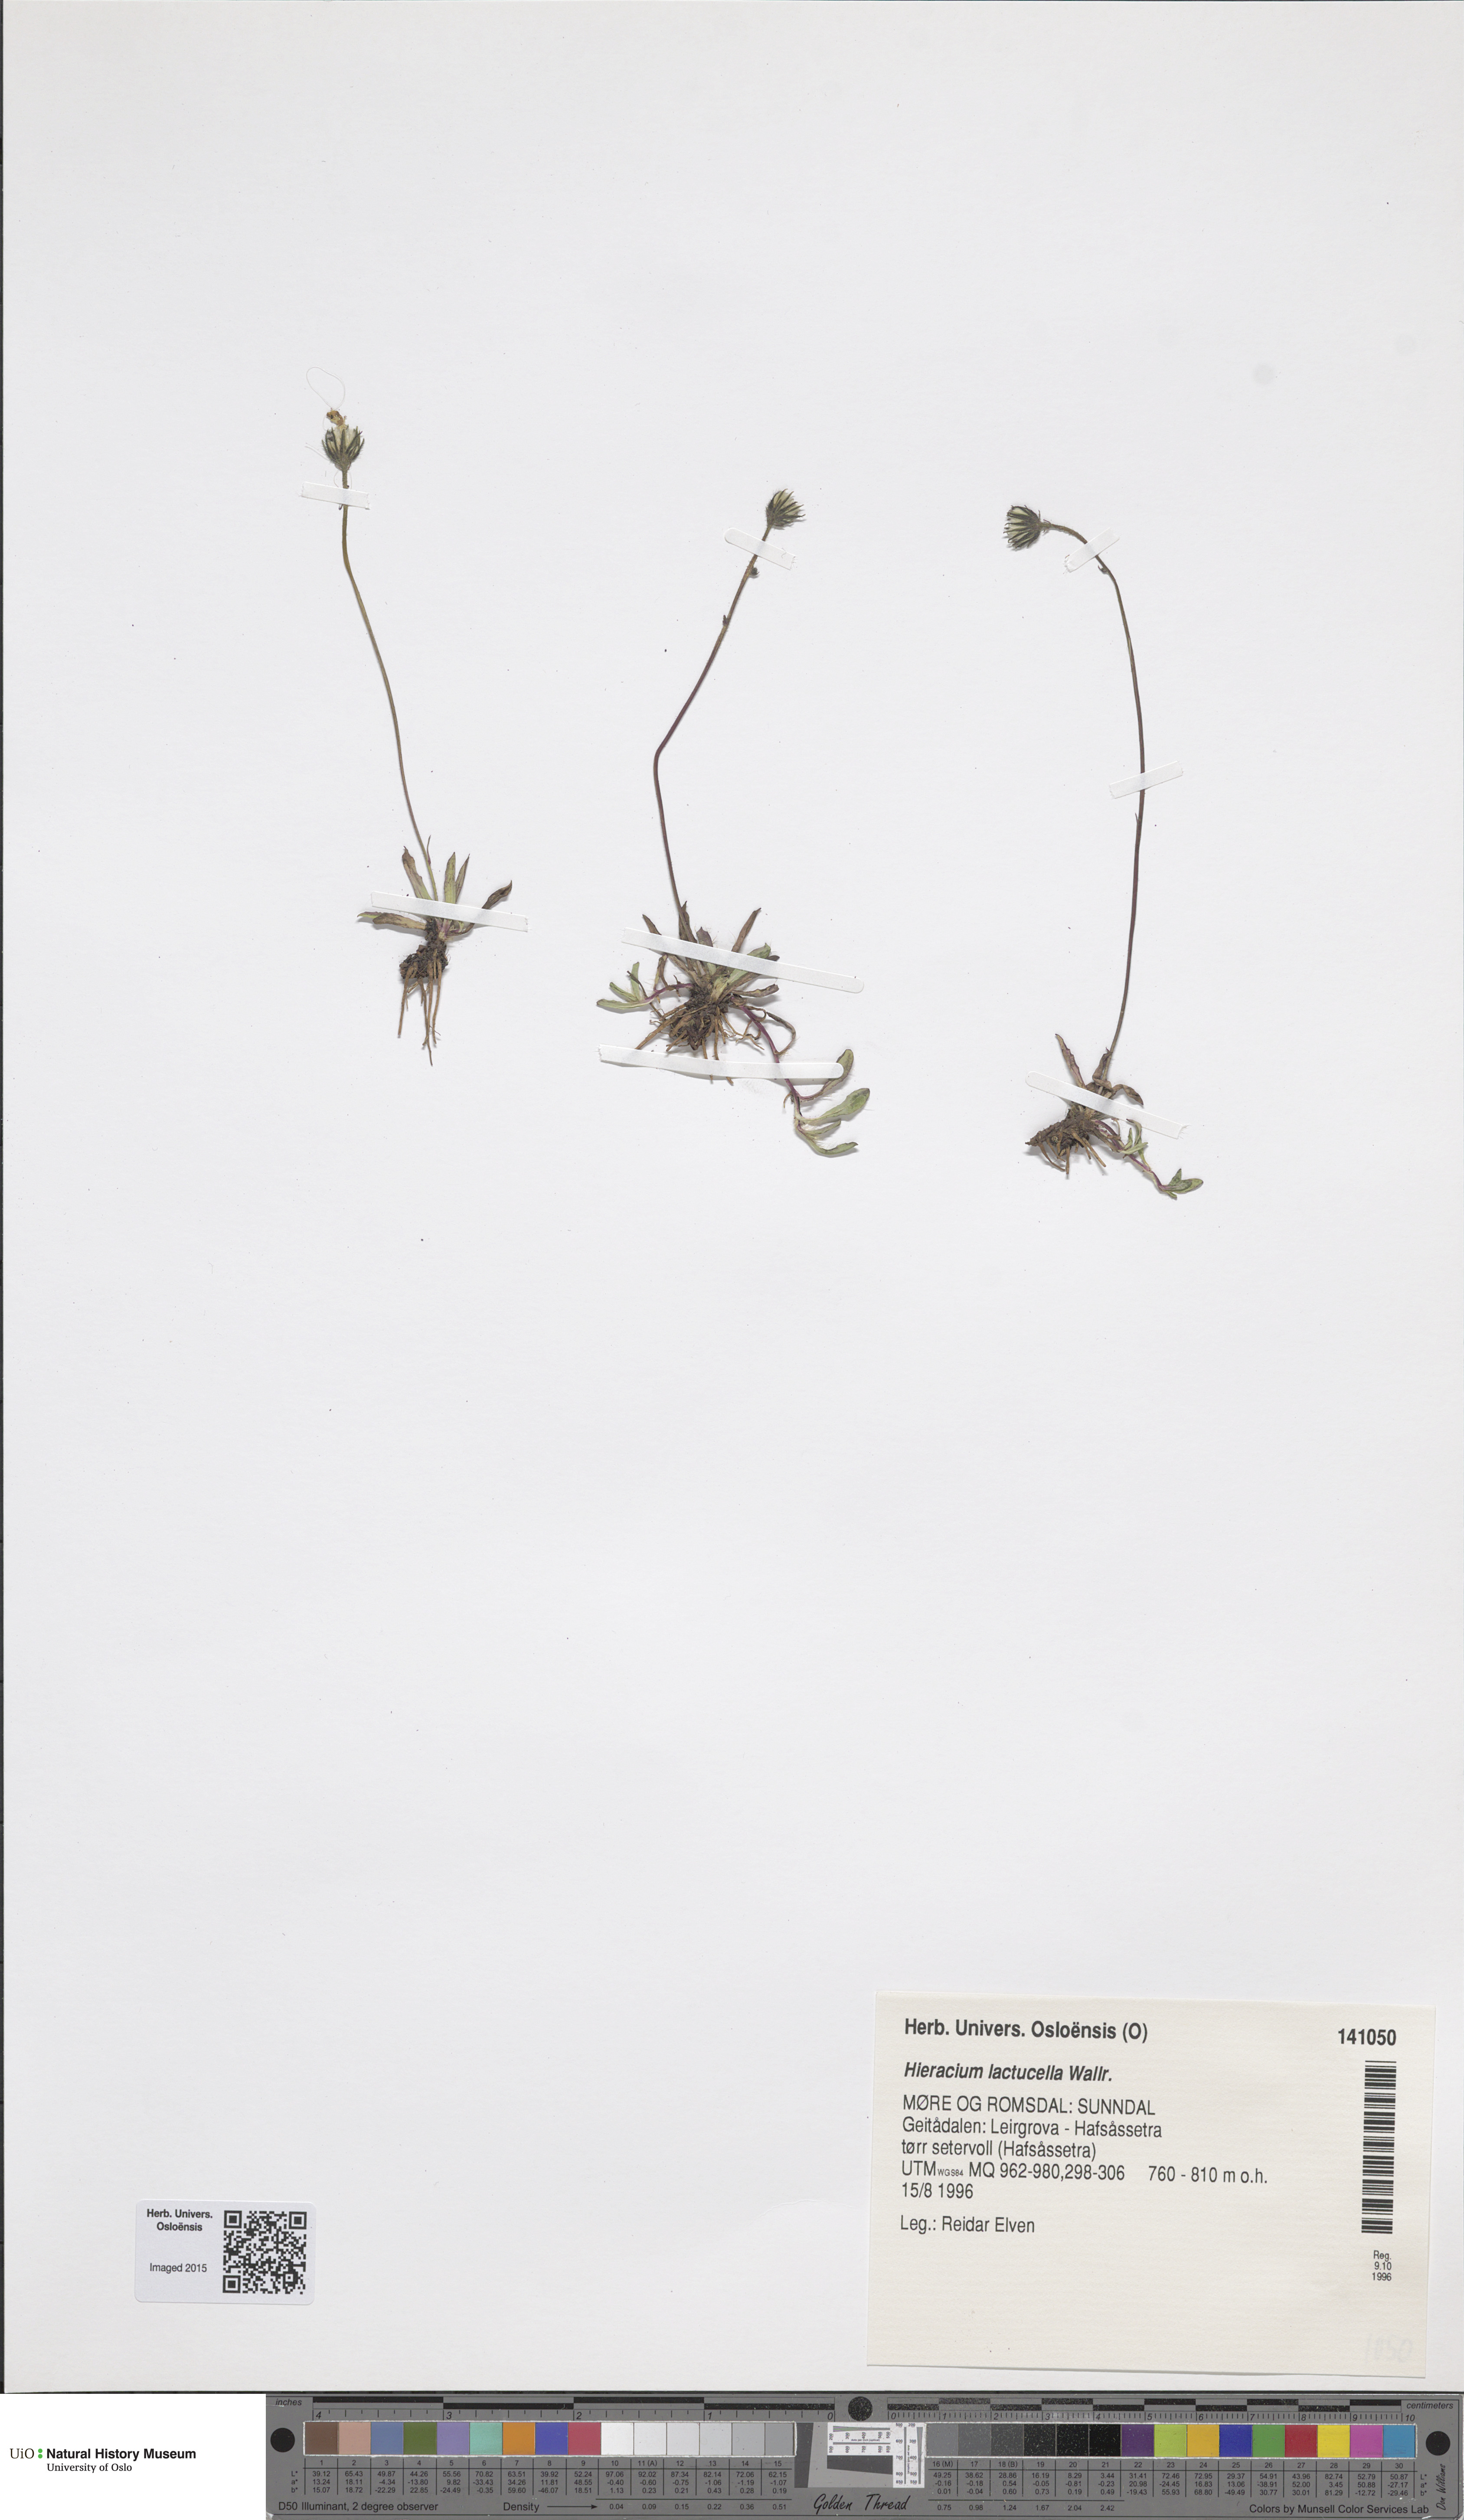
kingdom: Plantae
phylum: Tracheophyta
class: Magnoliopsida
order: Asterales
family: Asteraceae
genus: Pilosella
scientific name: Pilosella lactucella
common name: Glaucous fox-and-cubs
